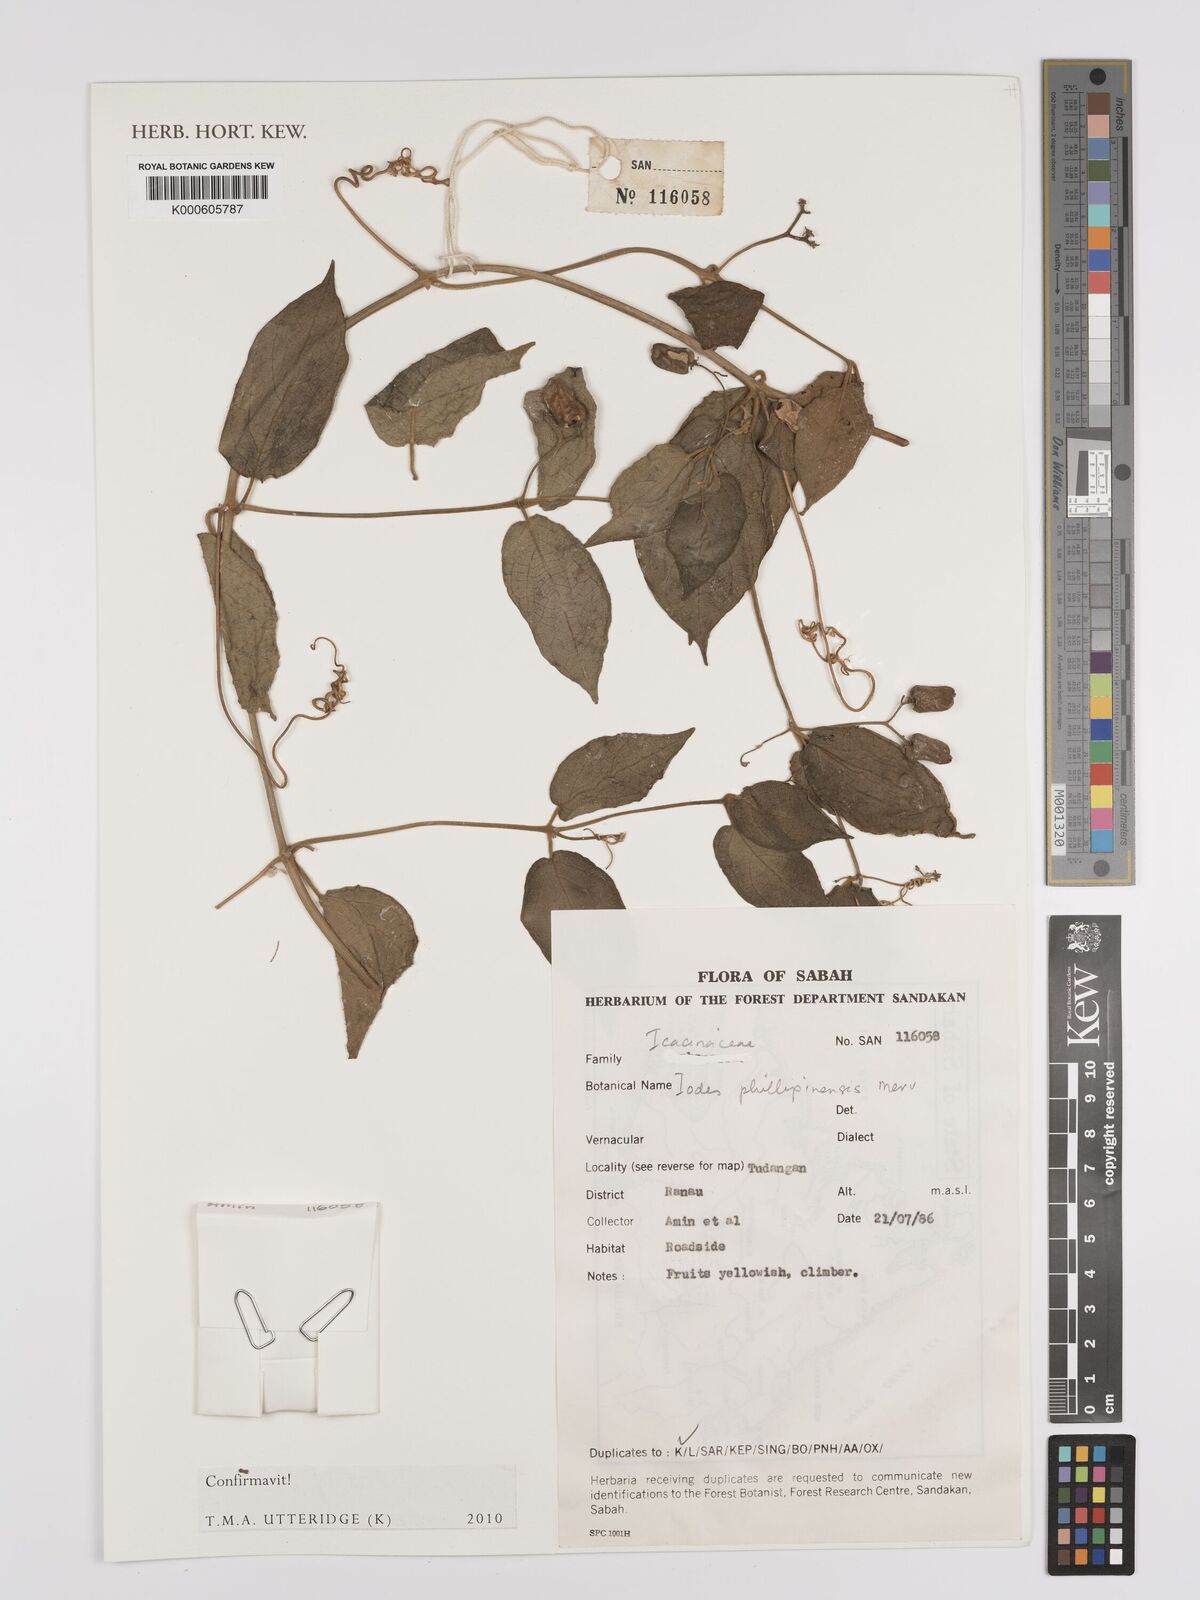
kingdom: Plantae
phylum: Tracheophyta
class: Magnoliopsida
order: Icacinales
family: Icacinaceae
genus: Iodes
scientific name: Iodes philippinensis
